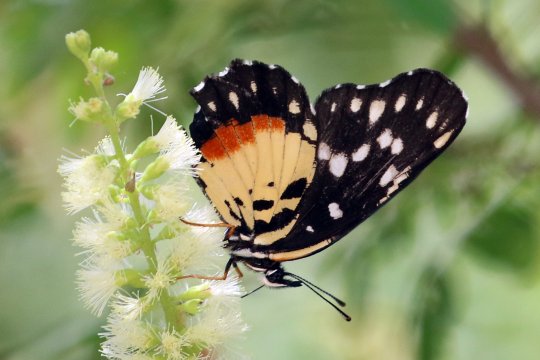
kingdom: Animalia
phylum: Arthropoda
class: Insecta
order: Lepidoptera
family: Nymphalidae
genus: Chlosyne
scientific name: Chlosyne rosita
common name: Rosita Patch
